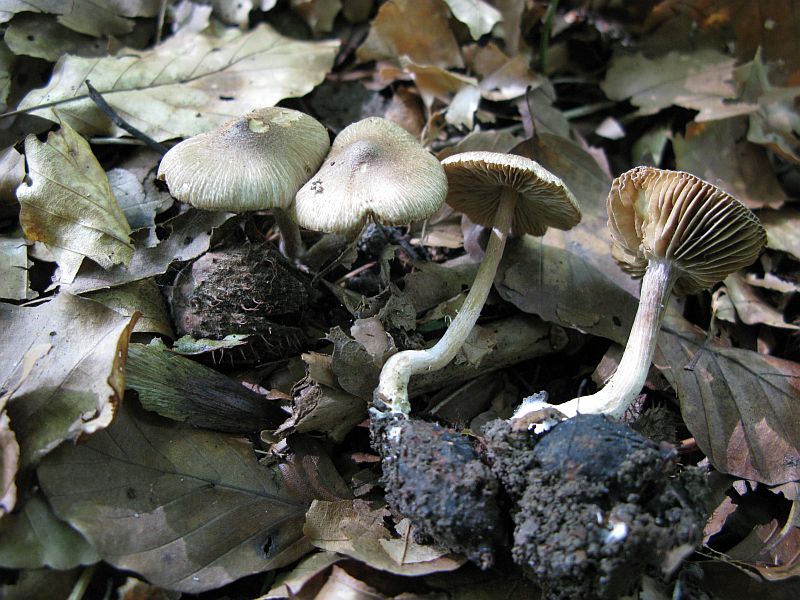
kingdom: Fungi
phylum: Basidiomycota
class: Agaricomycetes
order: Agaricales
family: Inocybaceae
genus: Inocybe
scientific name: Inocybe
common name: trævlhat
